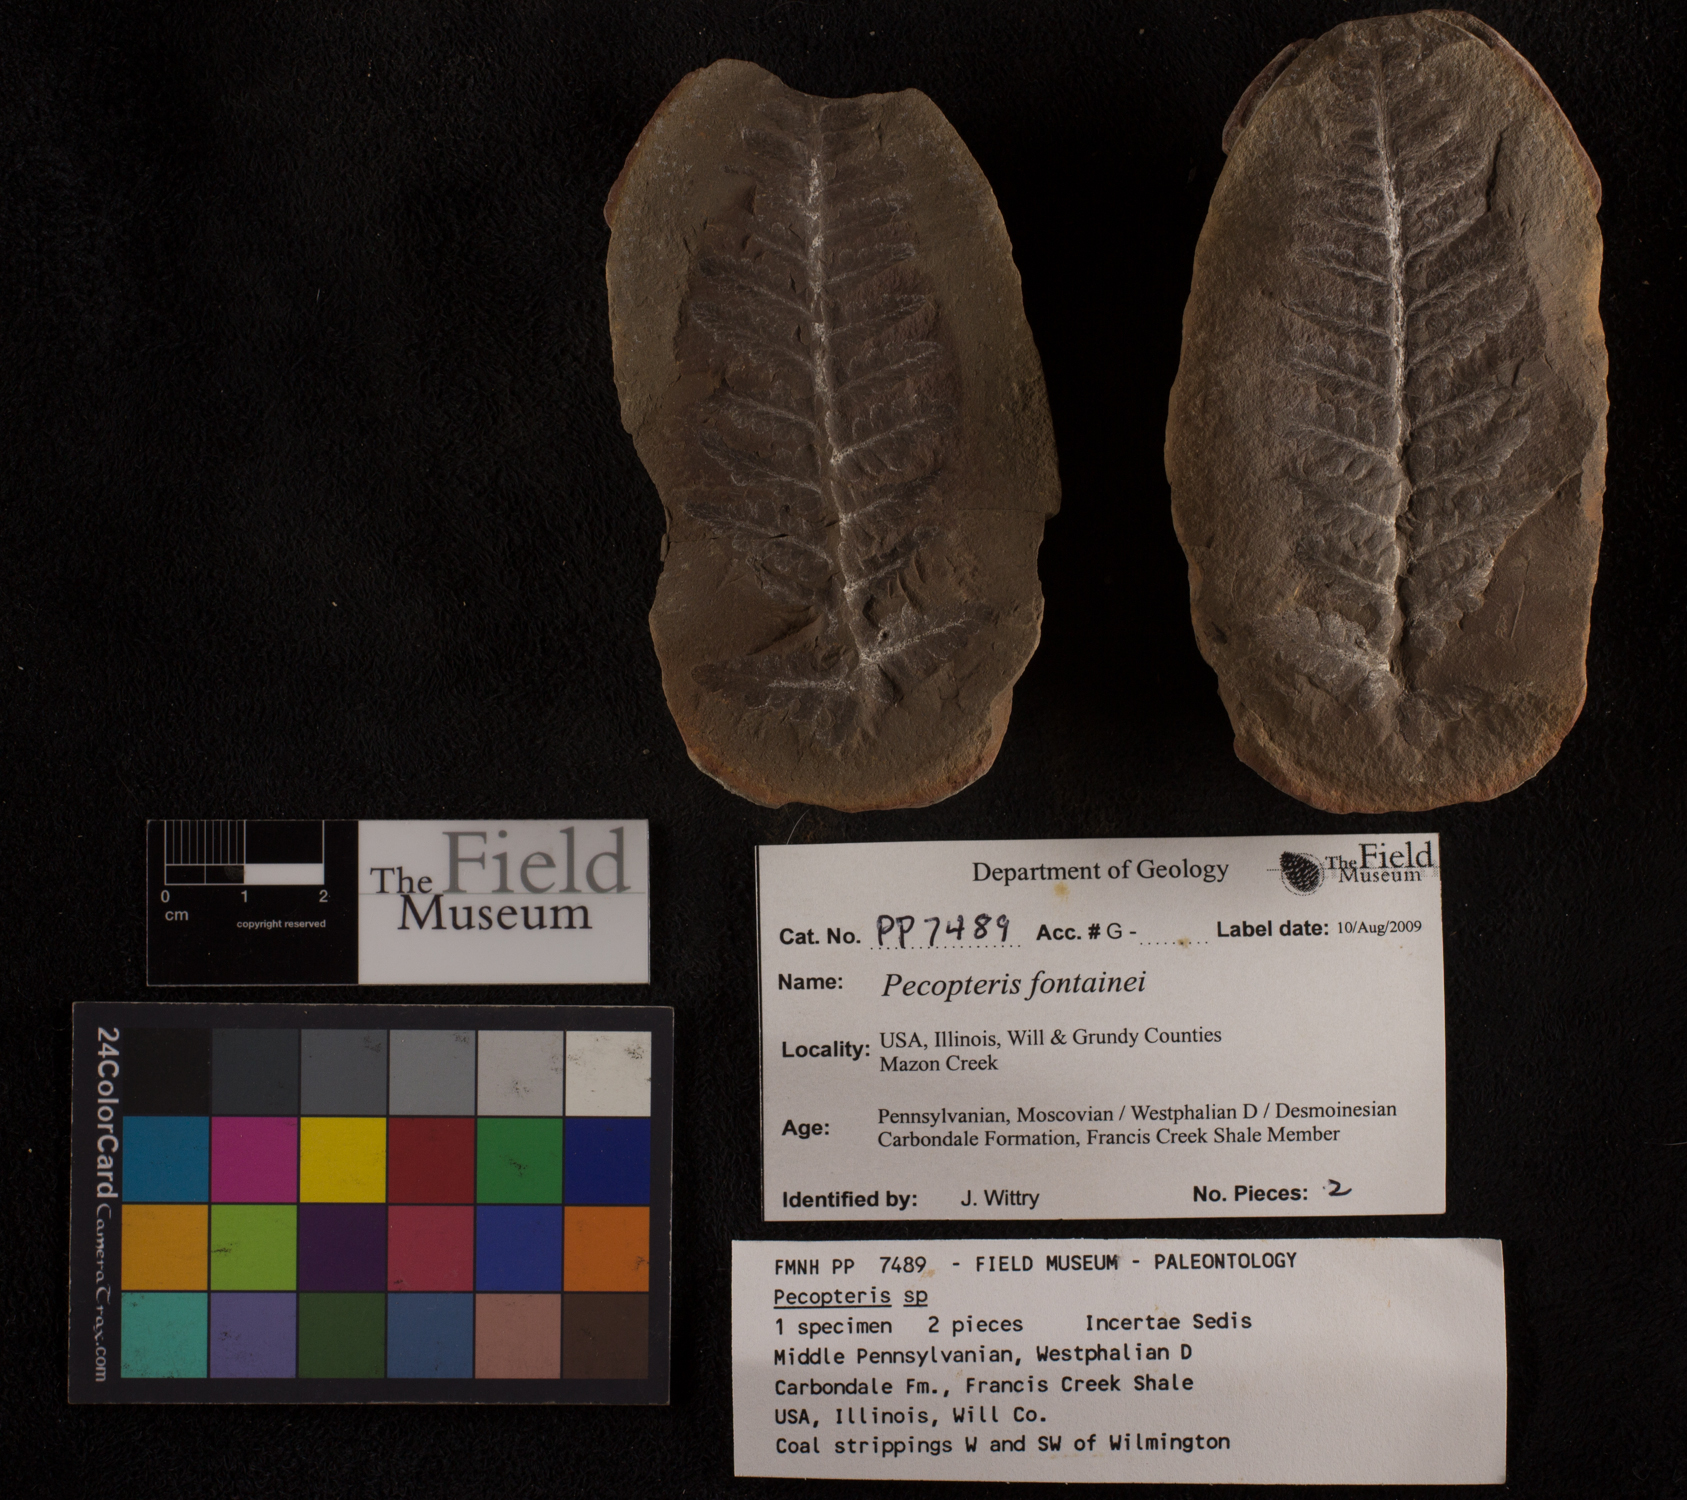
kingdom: Plantae
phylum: Tracheophyta
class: Polypodiopsida
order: Marattiales
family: Asterothecaceae
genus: Pecopteris
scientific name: Pecopteris
